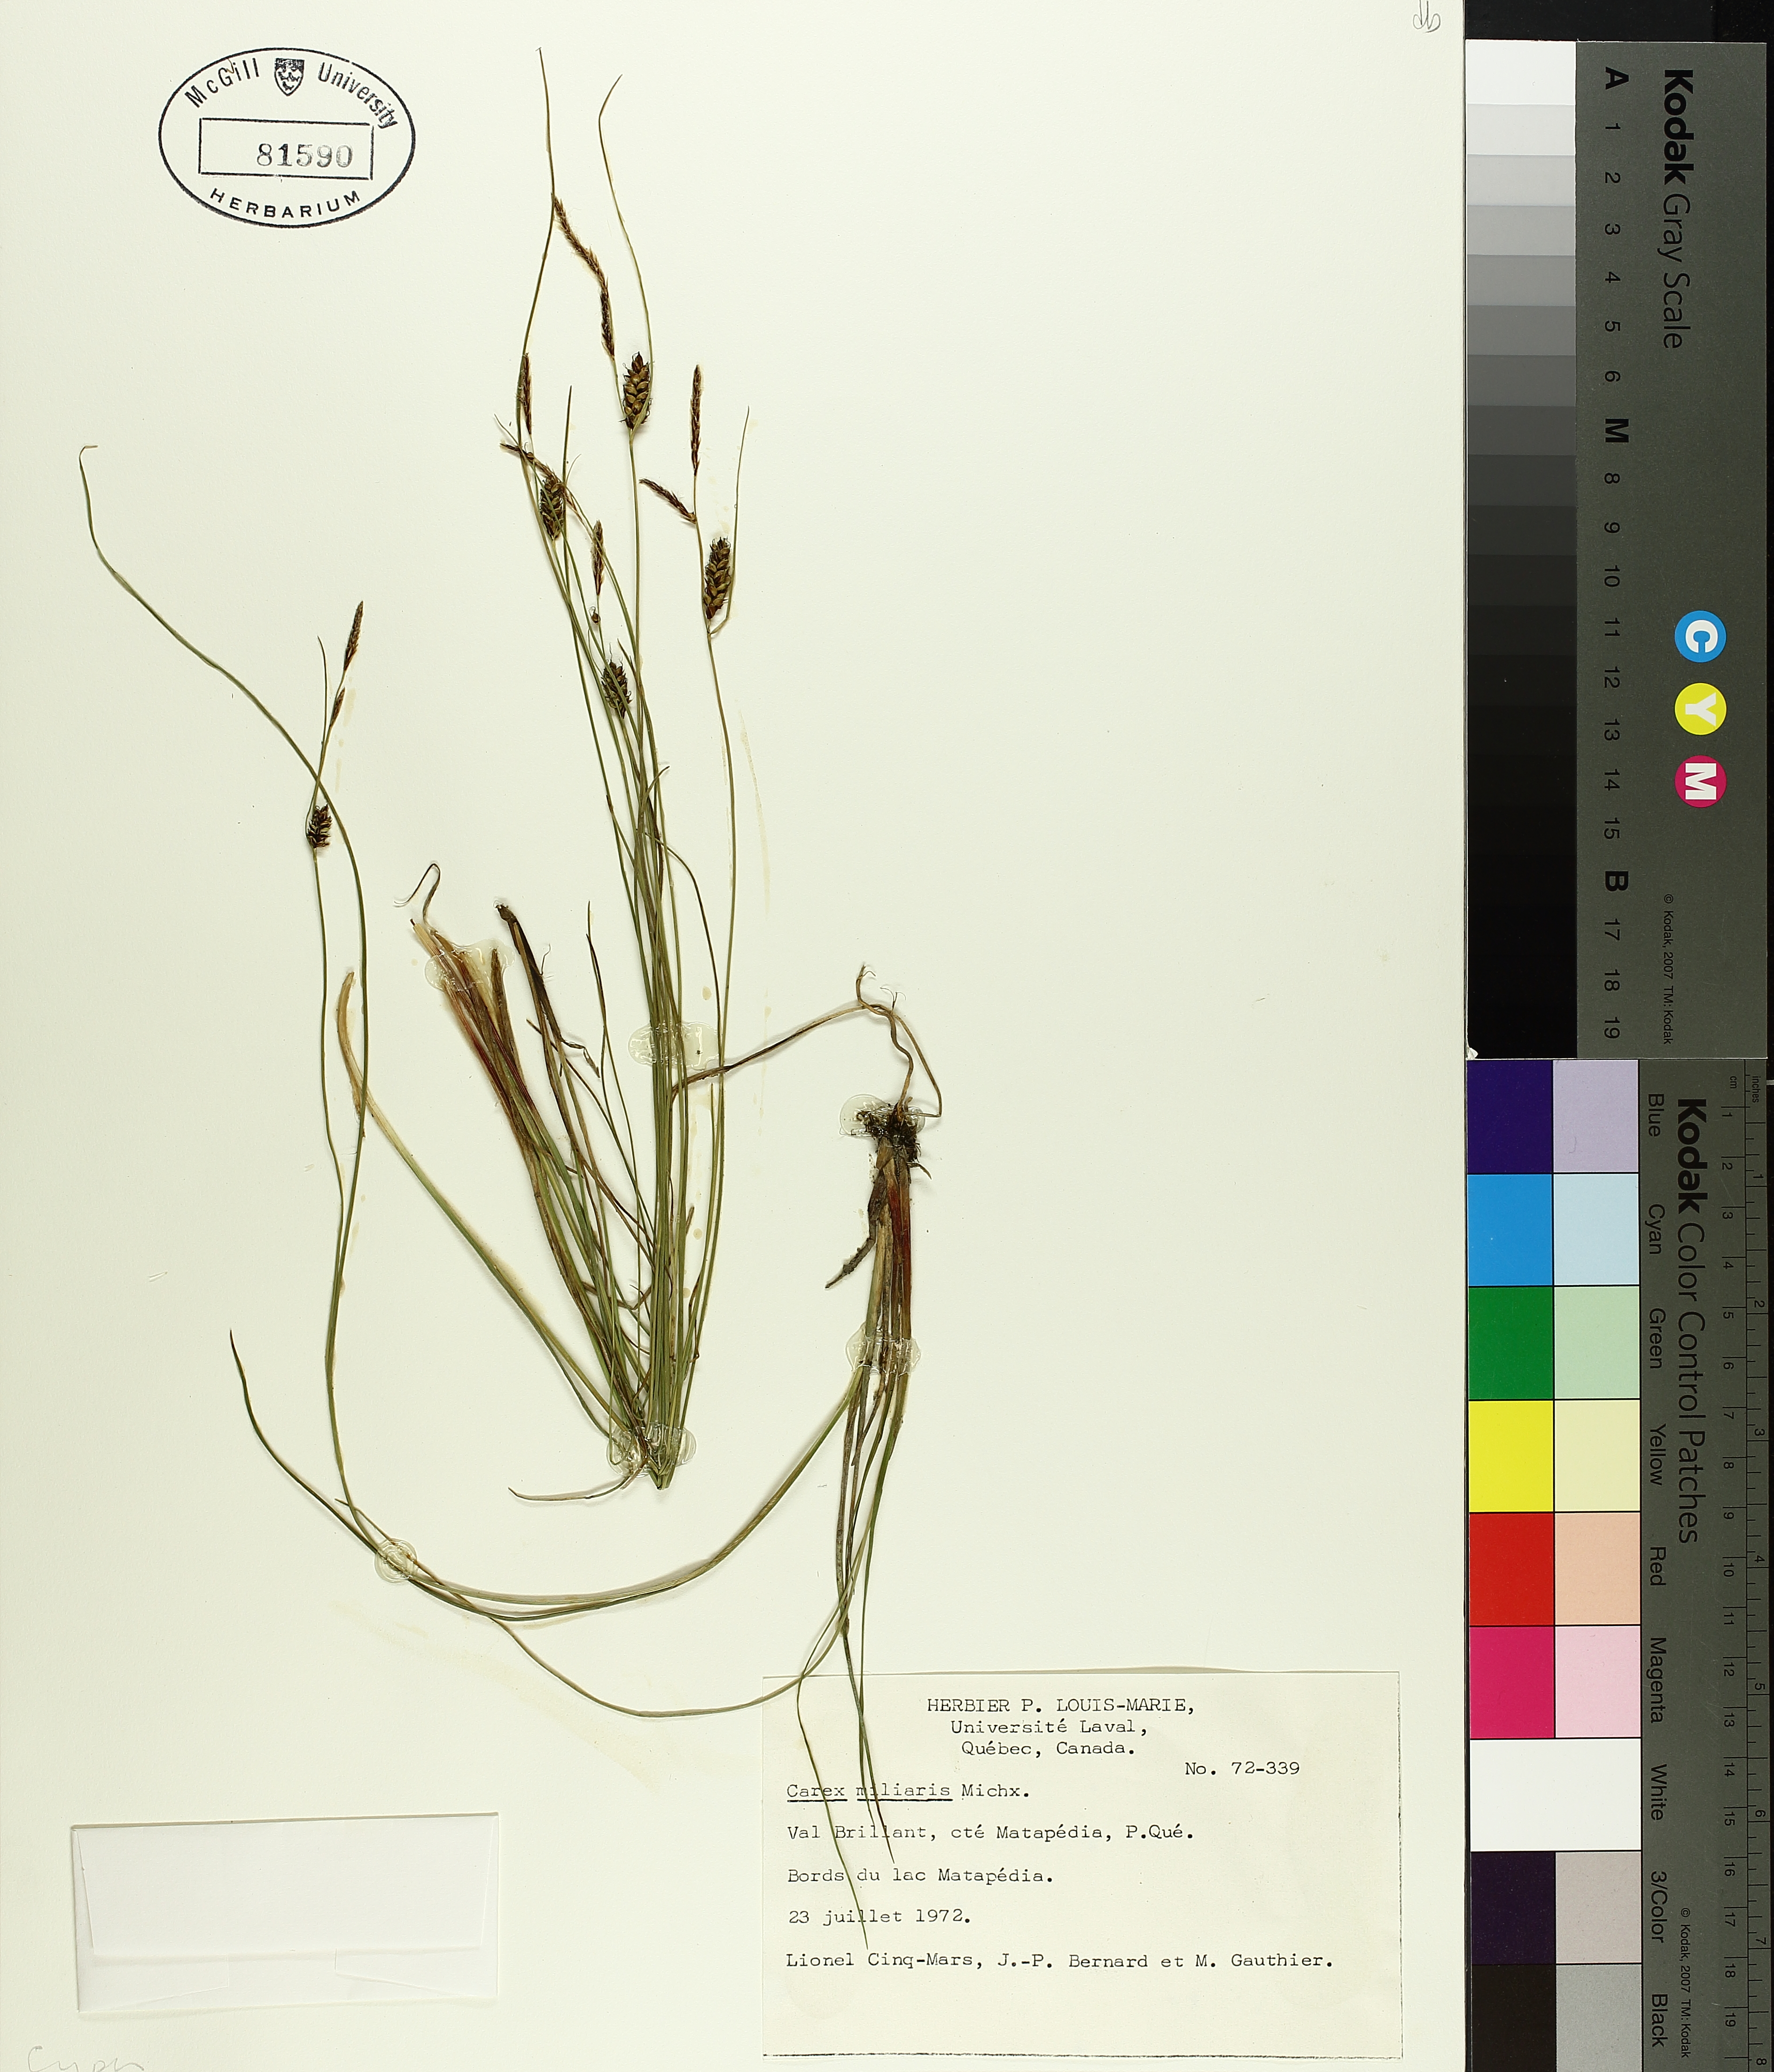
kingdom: Plantae
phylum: Tracheophyta
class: Liliopsida
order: Poales
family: Cyperaceae
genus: Carex
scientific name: Carex saxatilis
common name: Russet sedge
